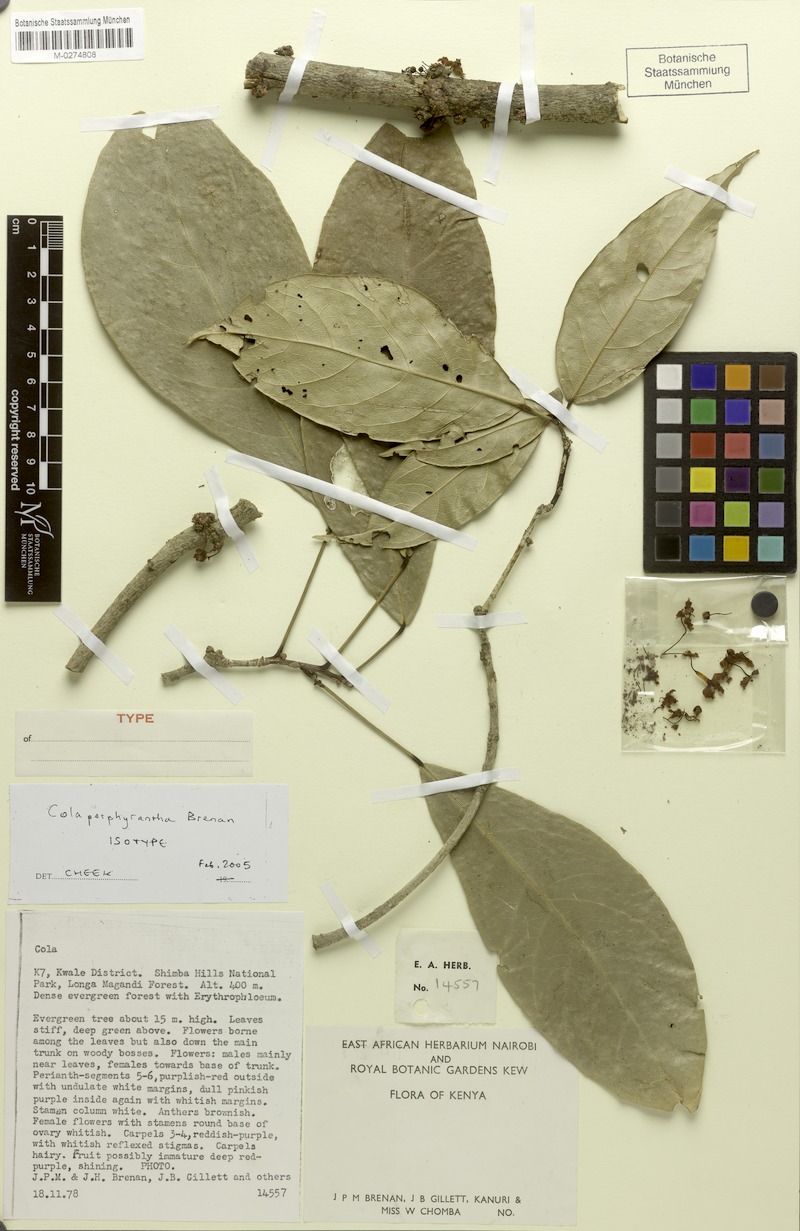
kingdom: Plantae
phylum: Tracheophyta
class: Magnoliopsida
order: Malvales
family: Malvaceae
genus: Cola
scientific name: Cola porphyrantha
